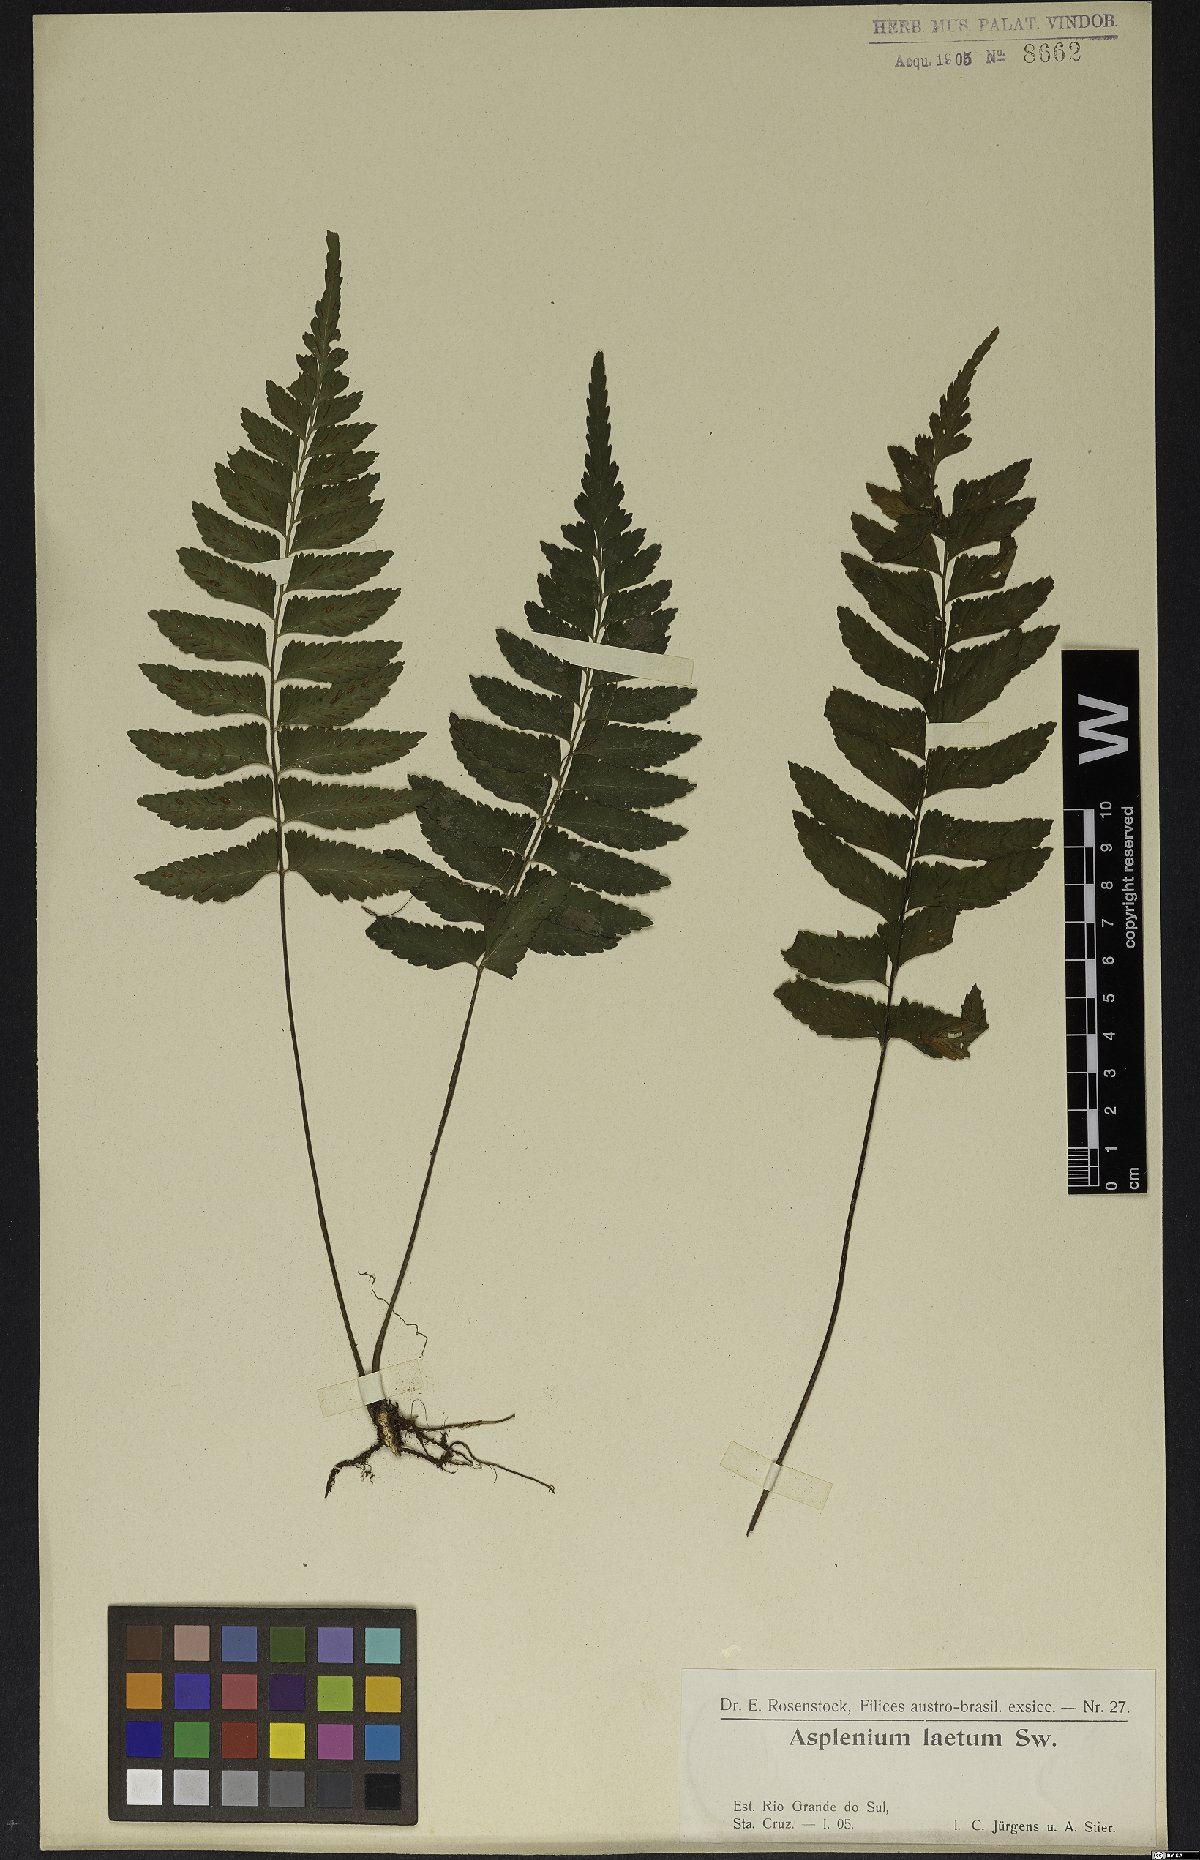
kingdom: Plantae
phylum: Tracheophyta
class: Polypodiopsida
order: Polypodiales
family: Aspleniaceae
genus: Hymenasplenium
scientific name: Hymenasplenium laetum
